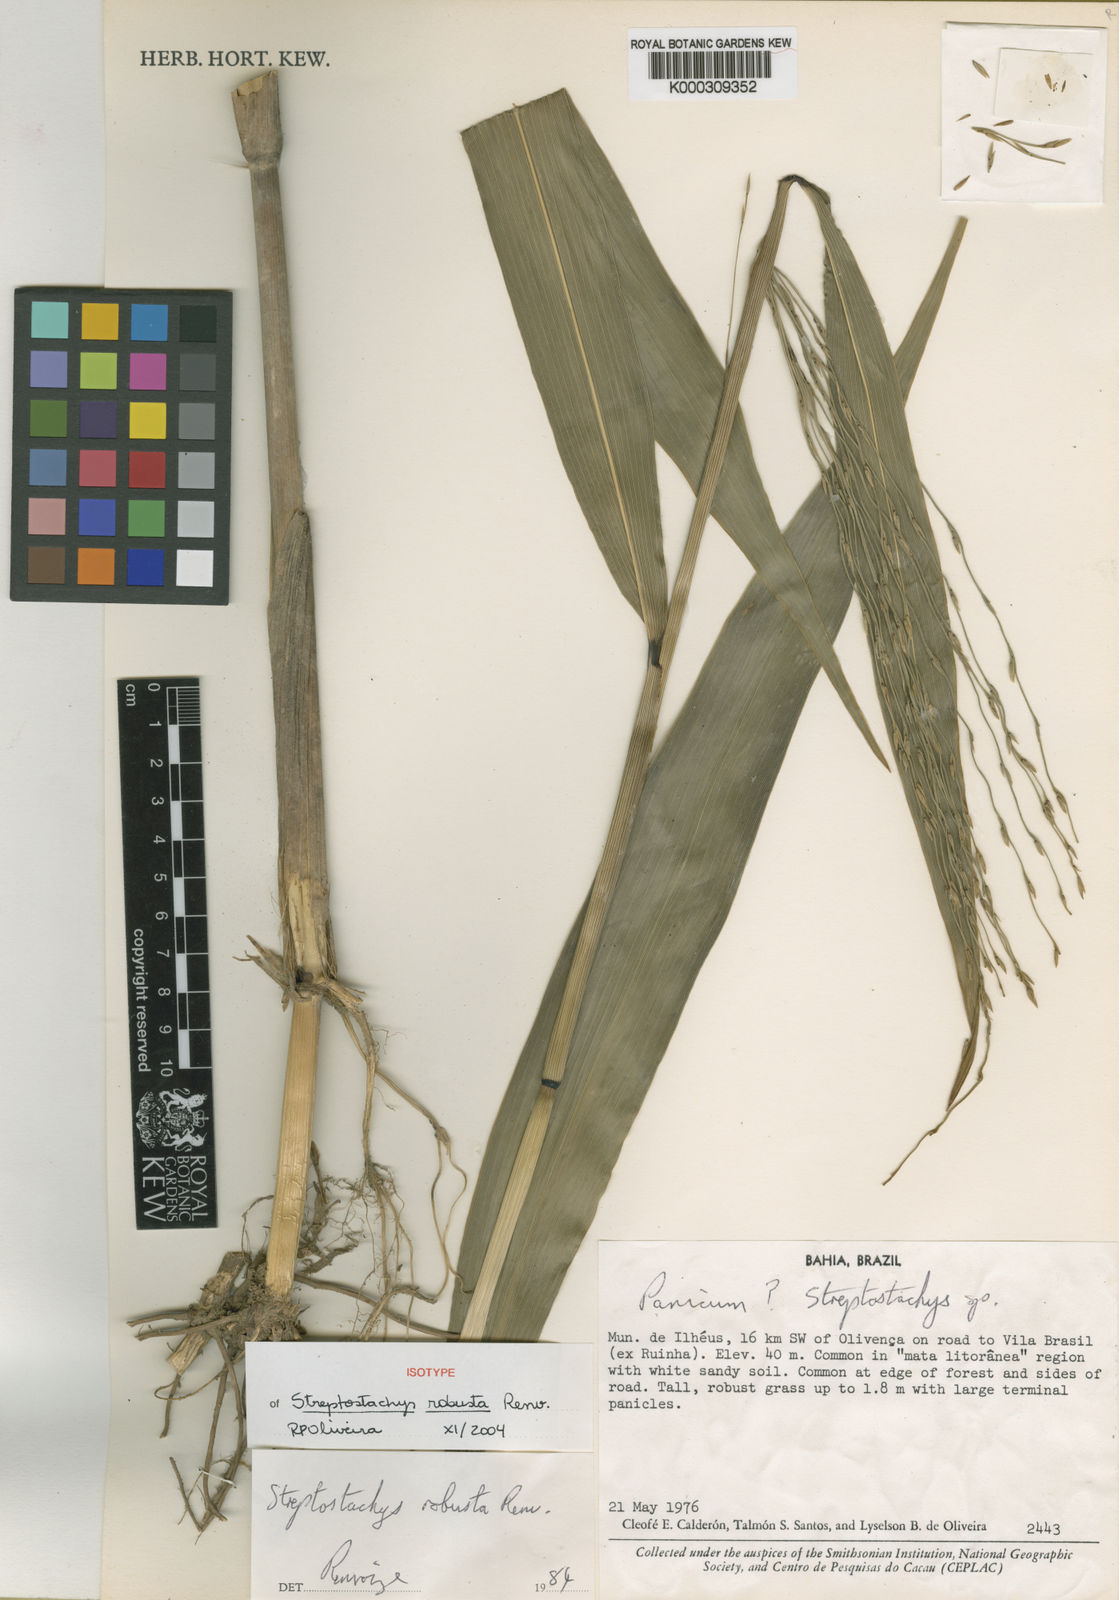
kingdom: Plantae
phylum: Tracheophyta
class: Liliopsida
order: Poales
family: Poaceae
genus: Ichnanthus
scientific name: Ichnanthus robustus
